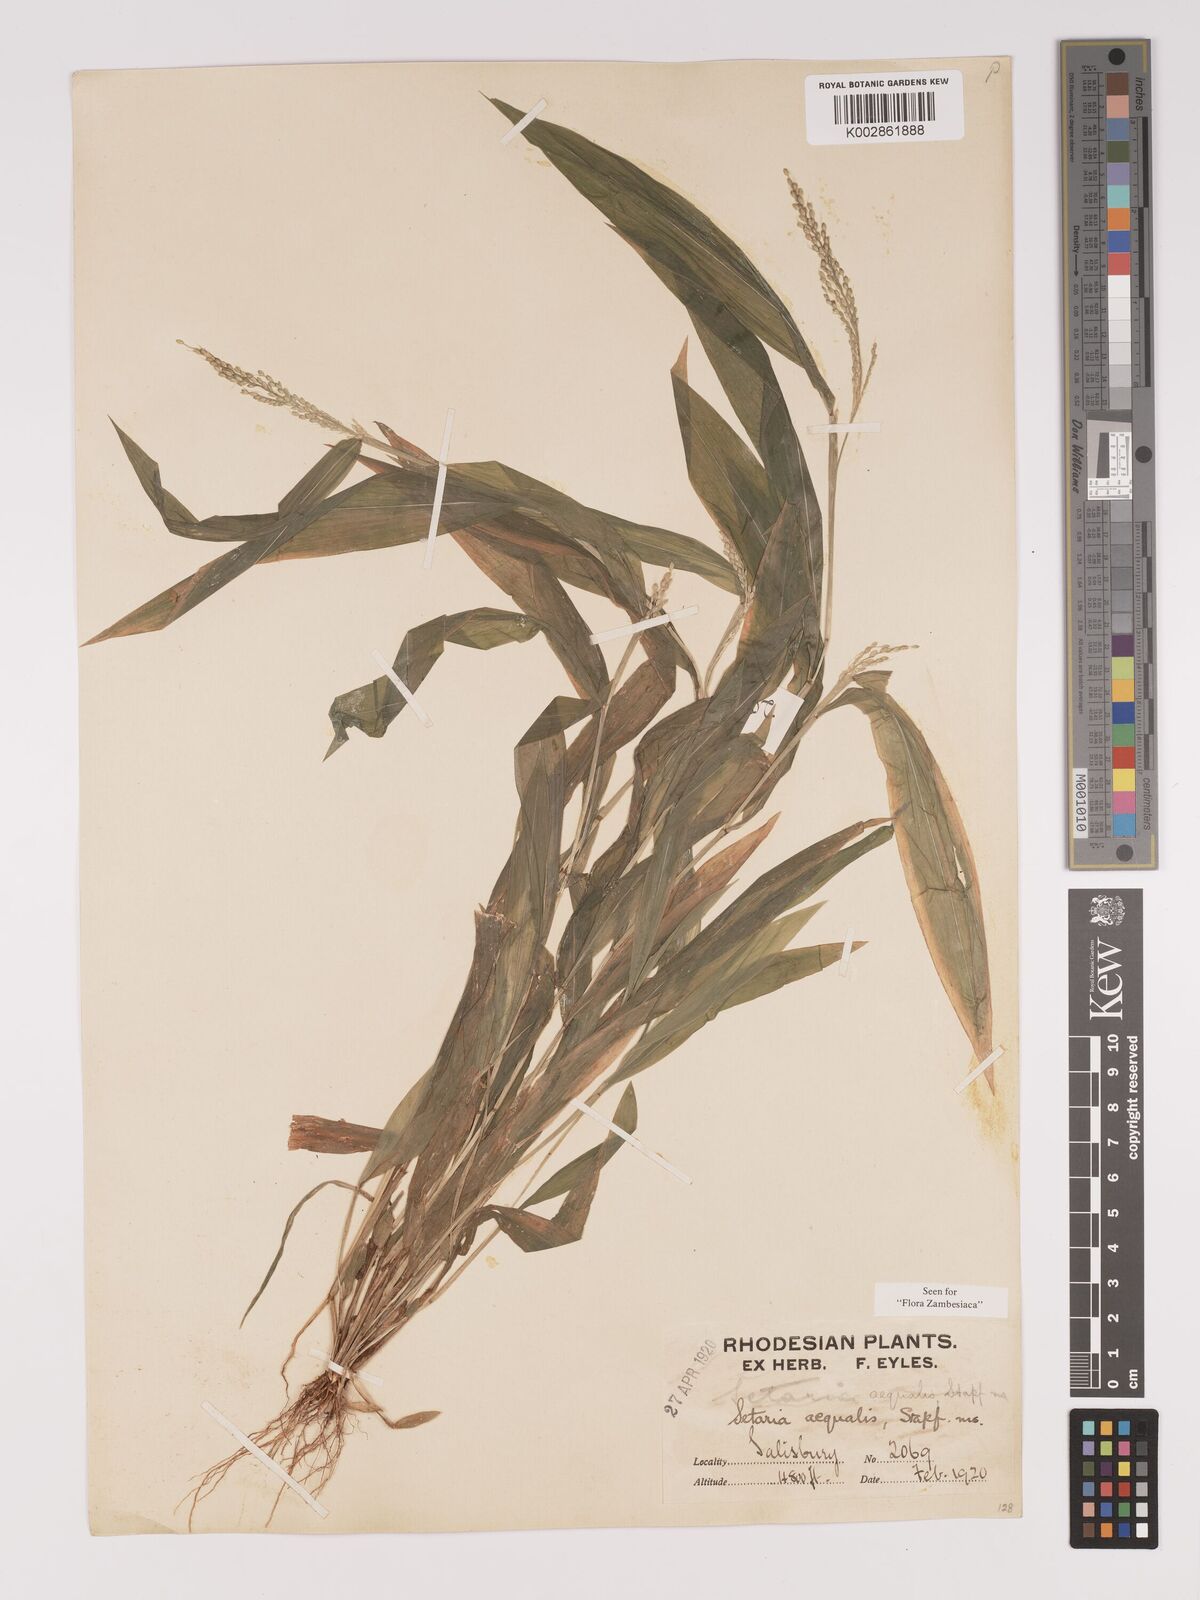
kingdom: Plantae
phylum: Tracheophyta
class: Liliopsida
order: Poales
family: Poaceae
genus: Setaria
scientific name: Setaria homonyma
